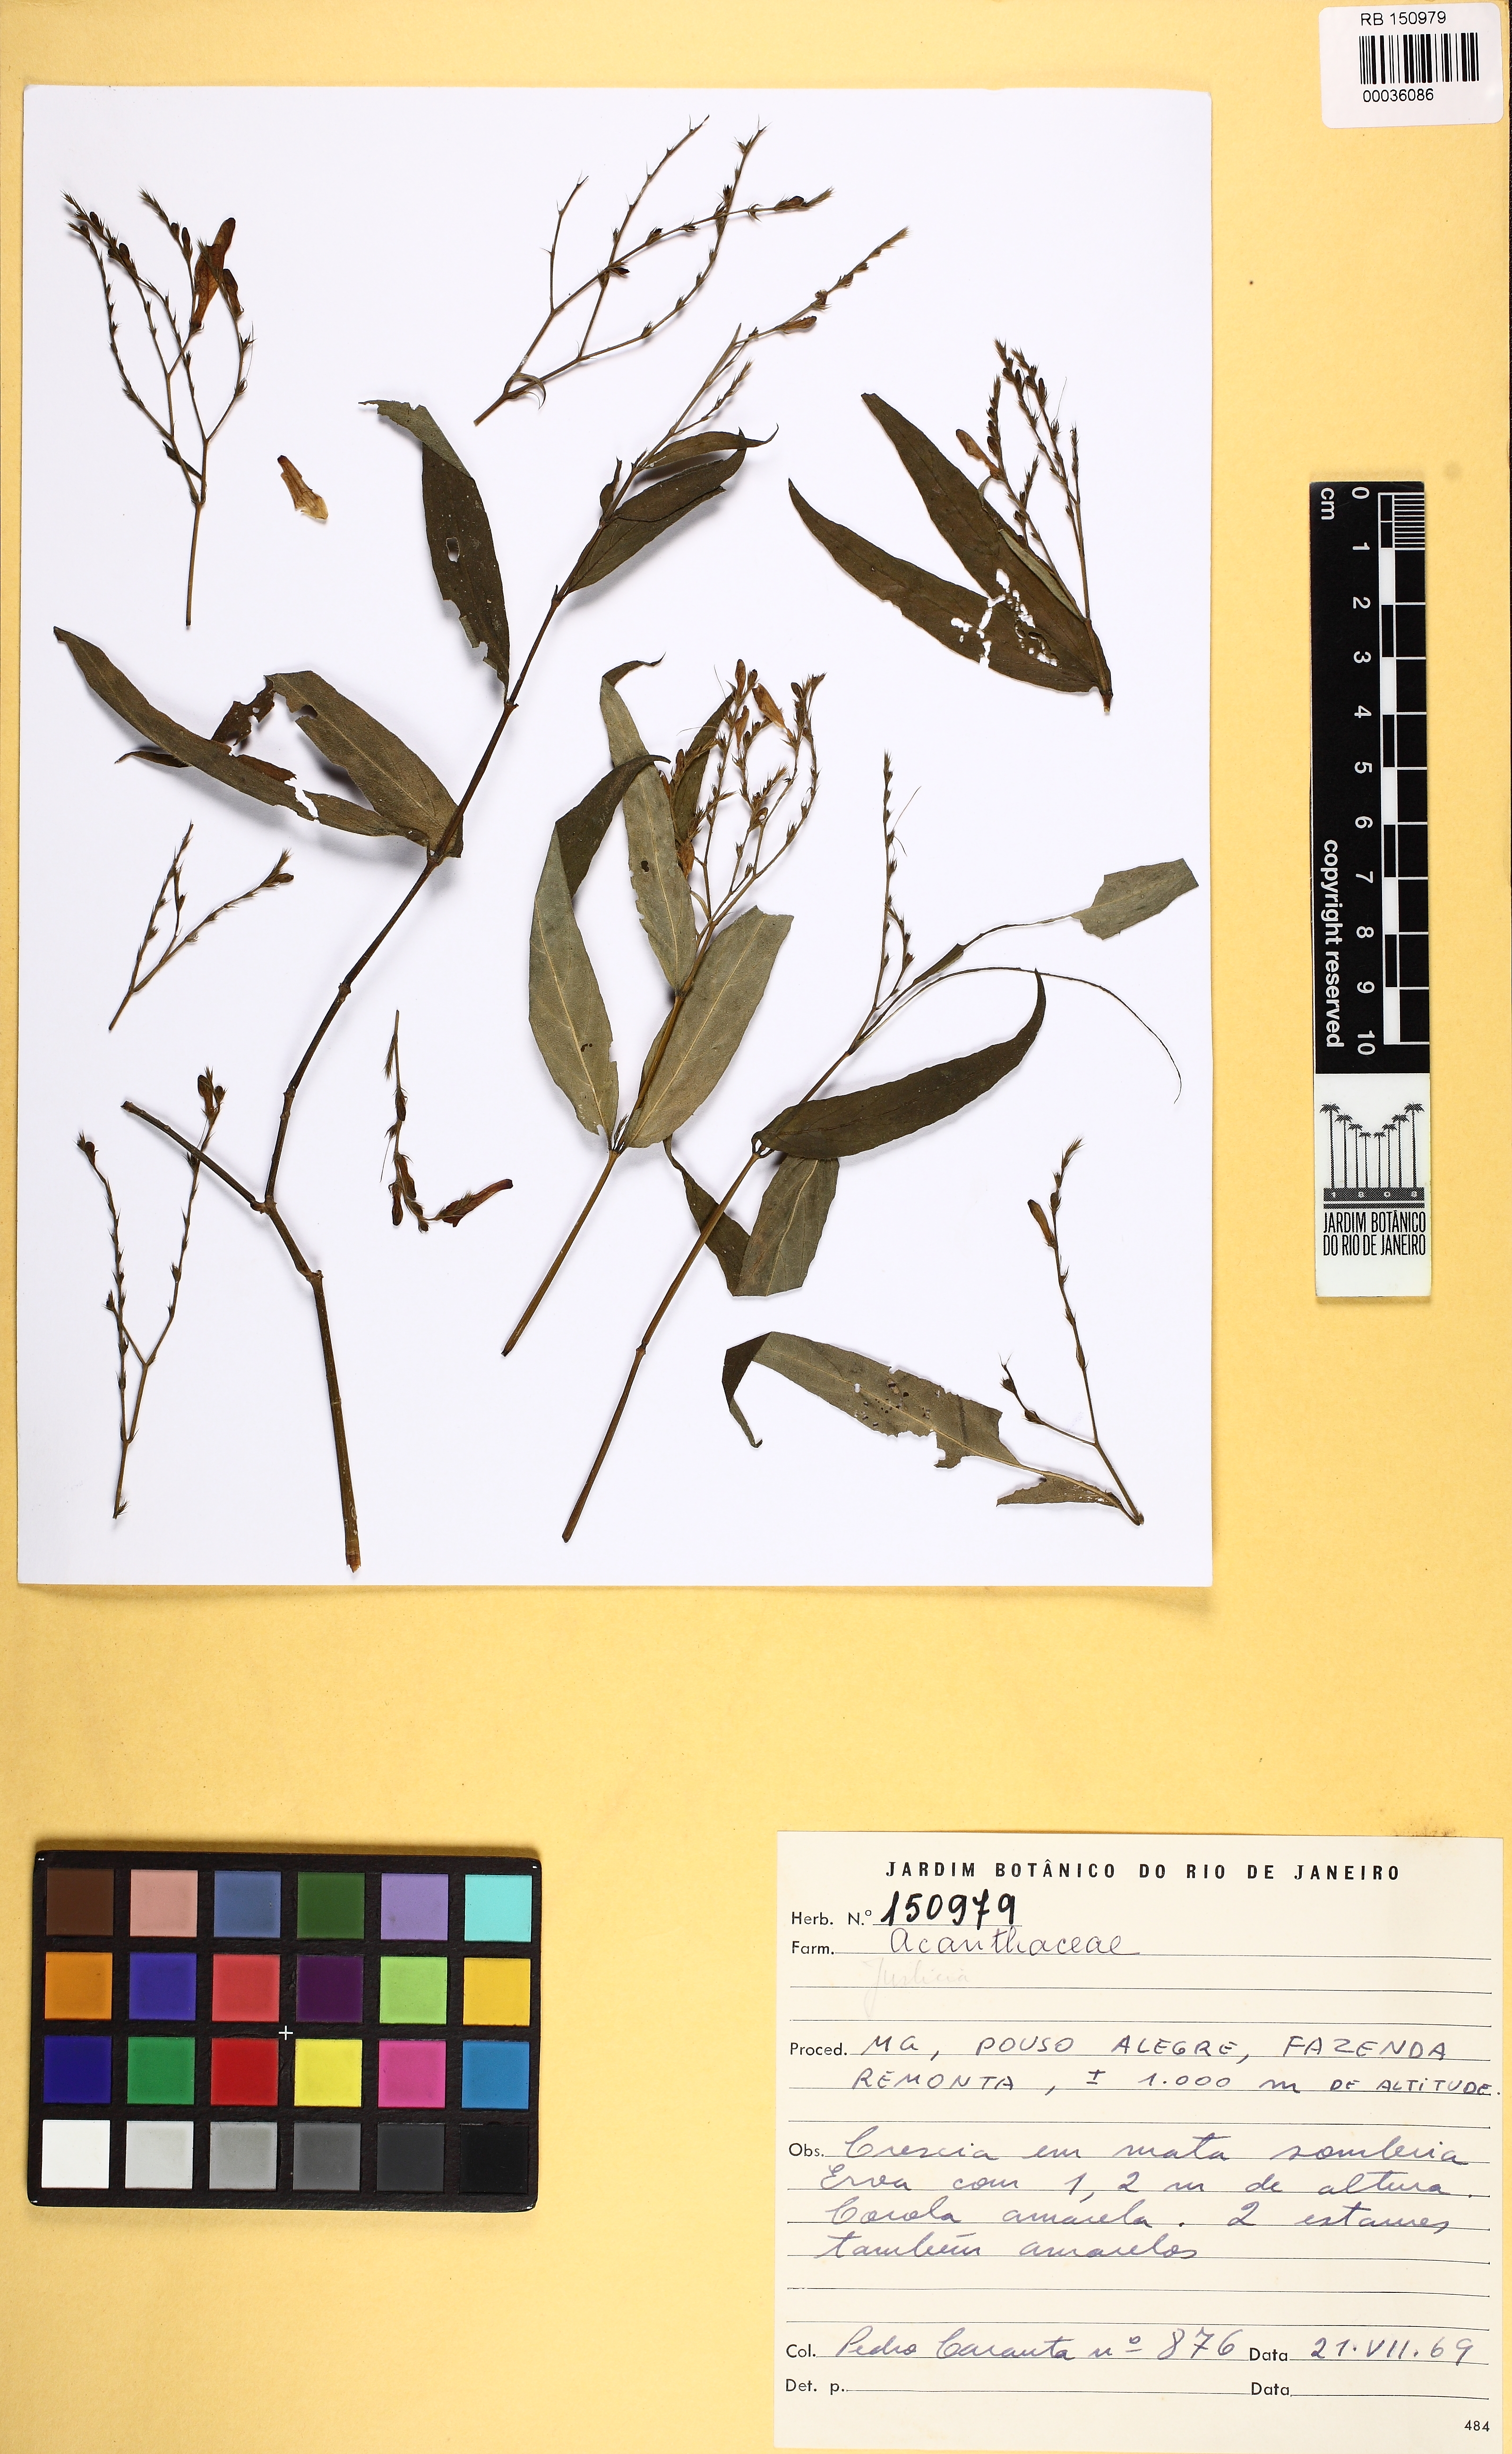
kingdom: Plantae
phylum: Tracheophyta
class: Magnoliopsida
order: Lamiales
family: Acanthaceae
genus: Justicia
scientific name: Justicia
